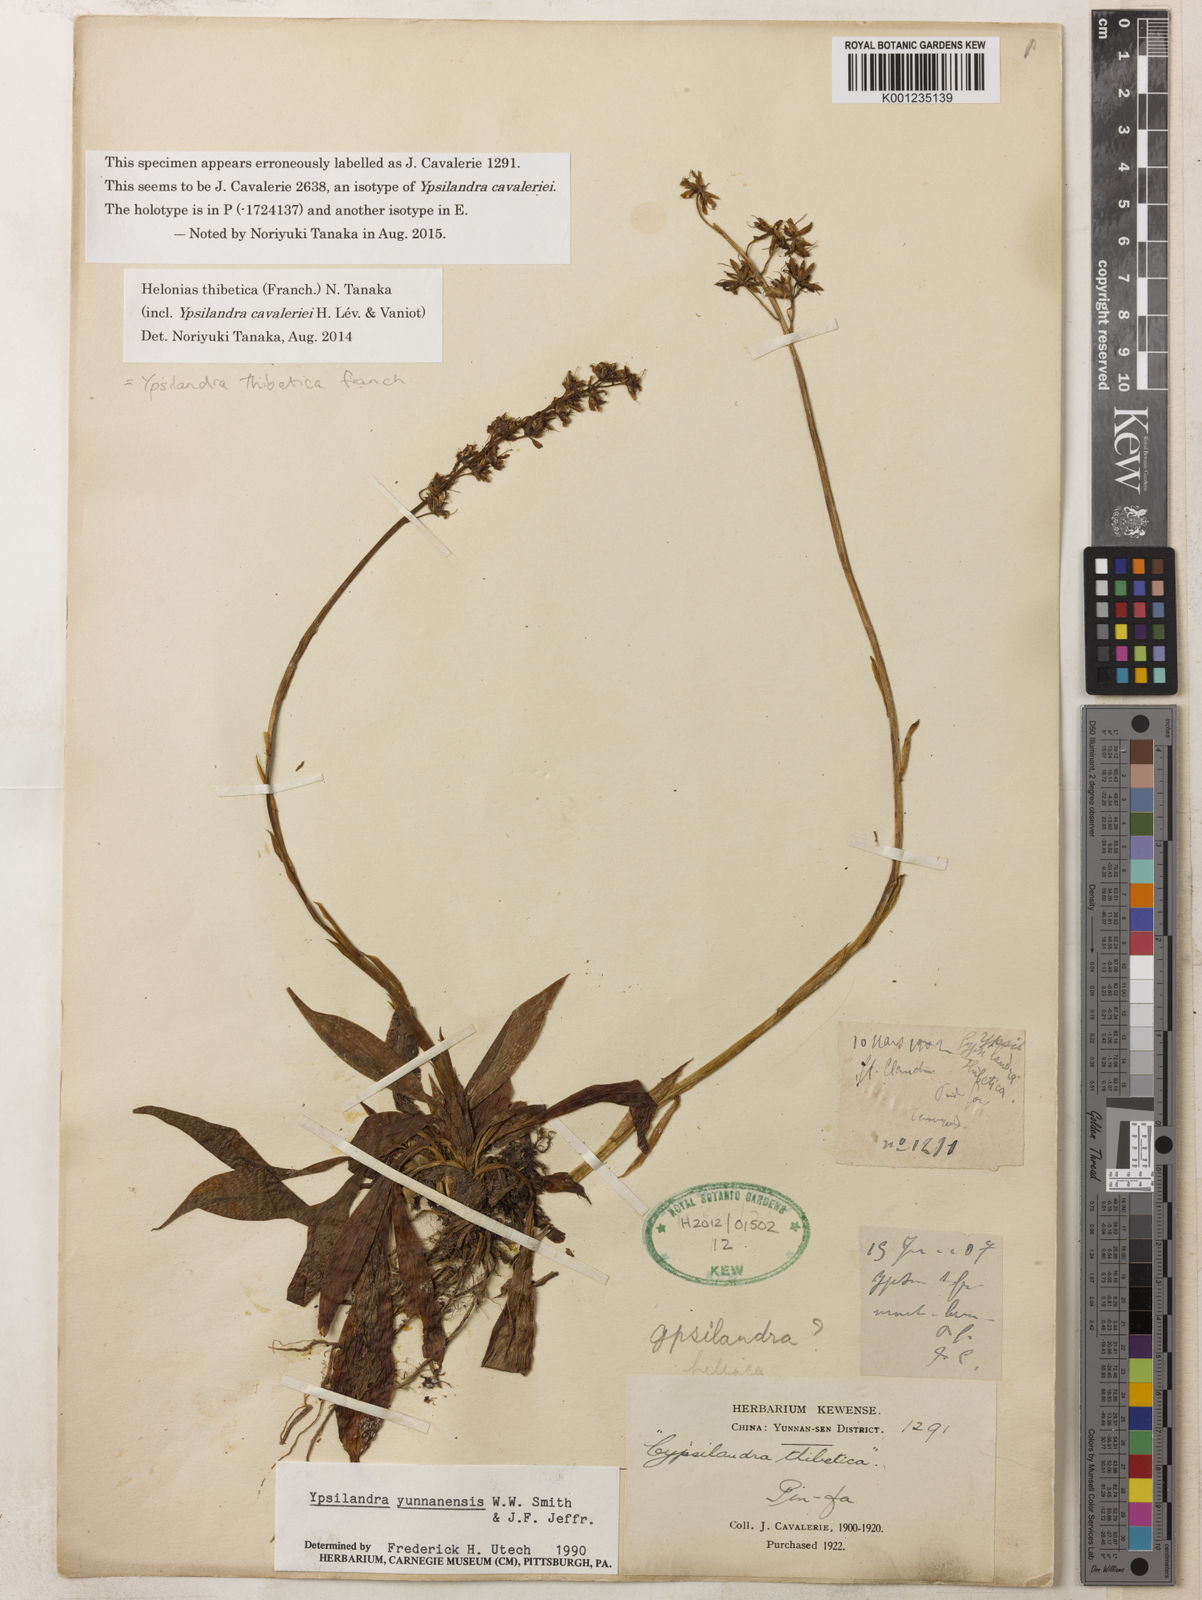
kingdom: Plantae
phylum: Tracheophyta
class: Liliopsida
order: Liliales
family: Melanthiaceae
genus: Helonias
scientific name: Helonias thibetica
